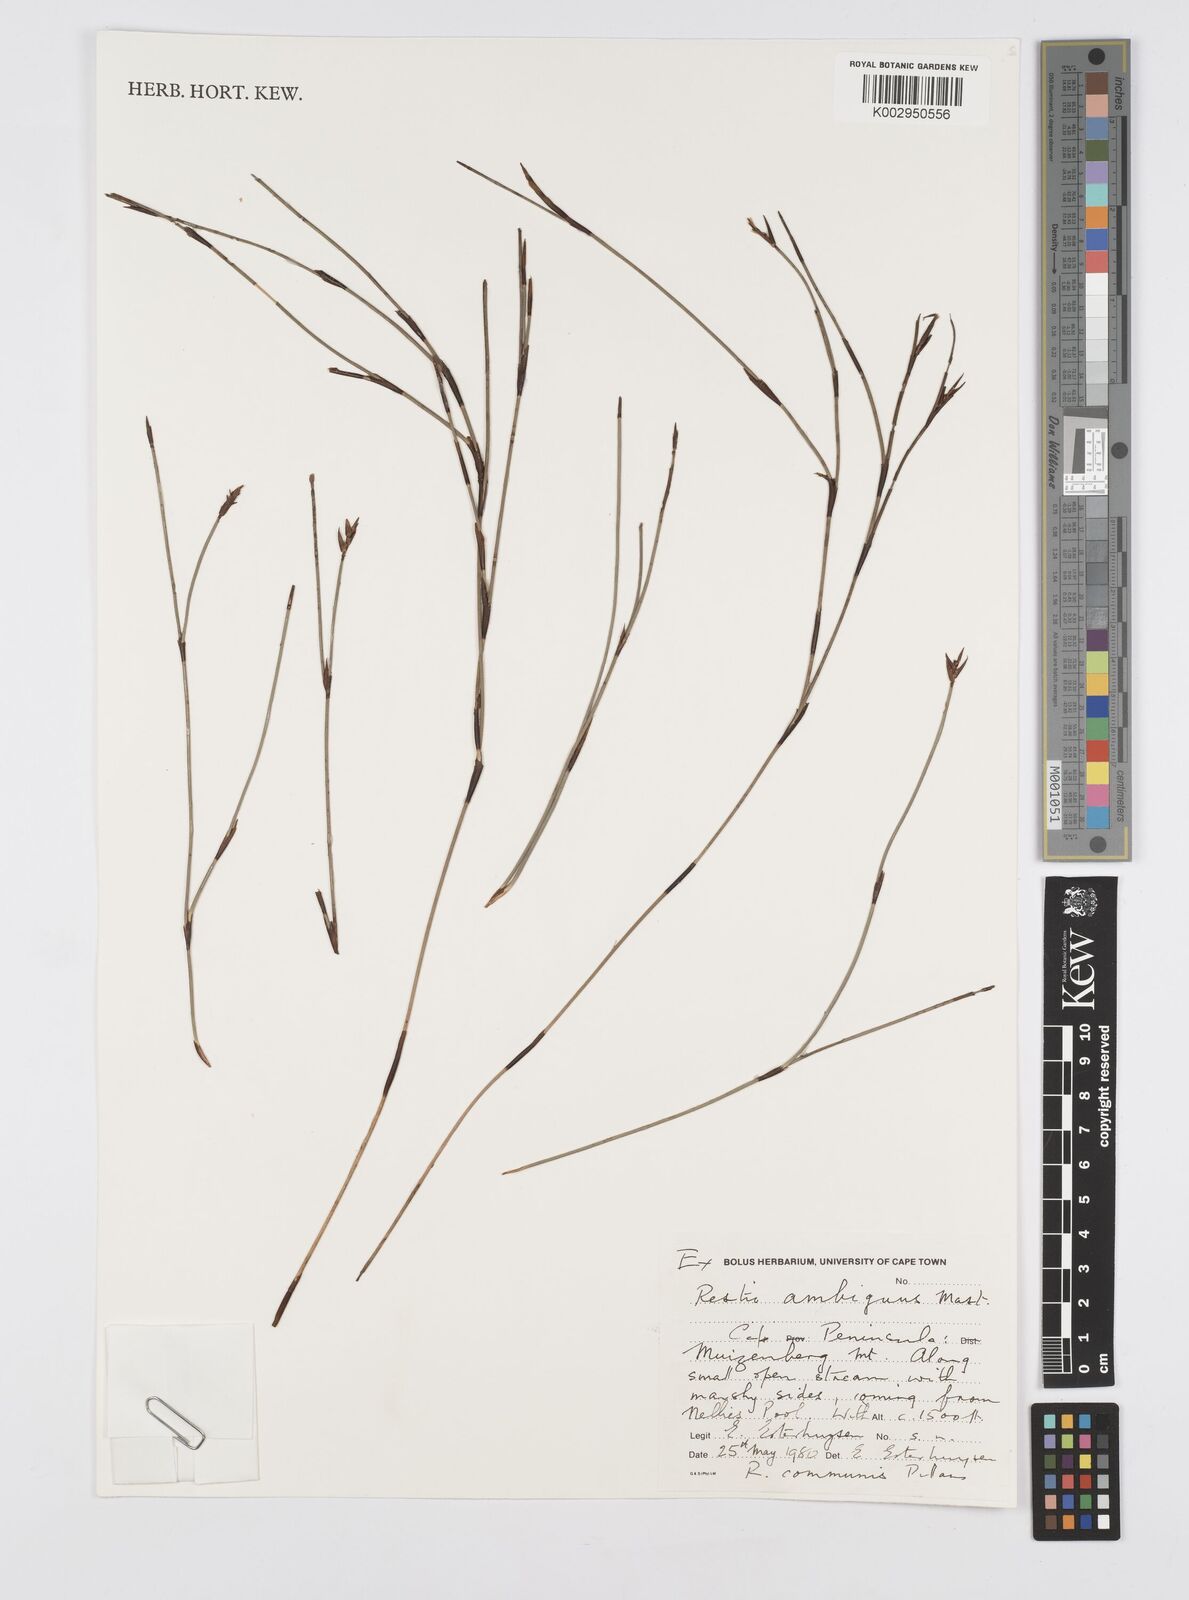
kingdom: Plantae
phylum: Tracheophyta
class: Liliopsida
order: Poales
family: Restionaceae
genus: Soroveta
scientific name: Soroveta ambigua
